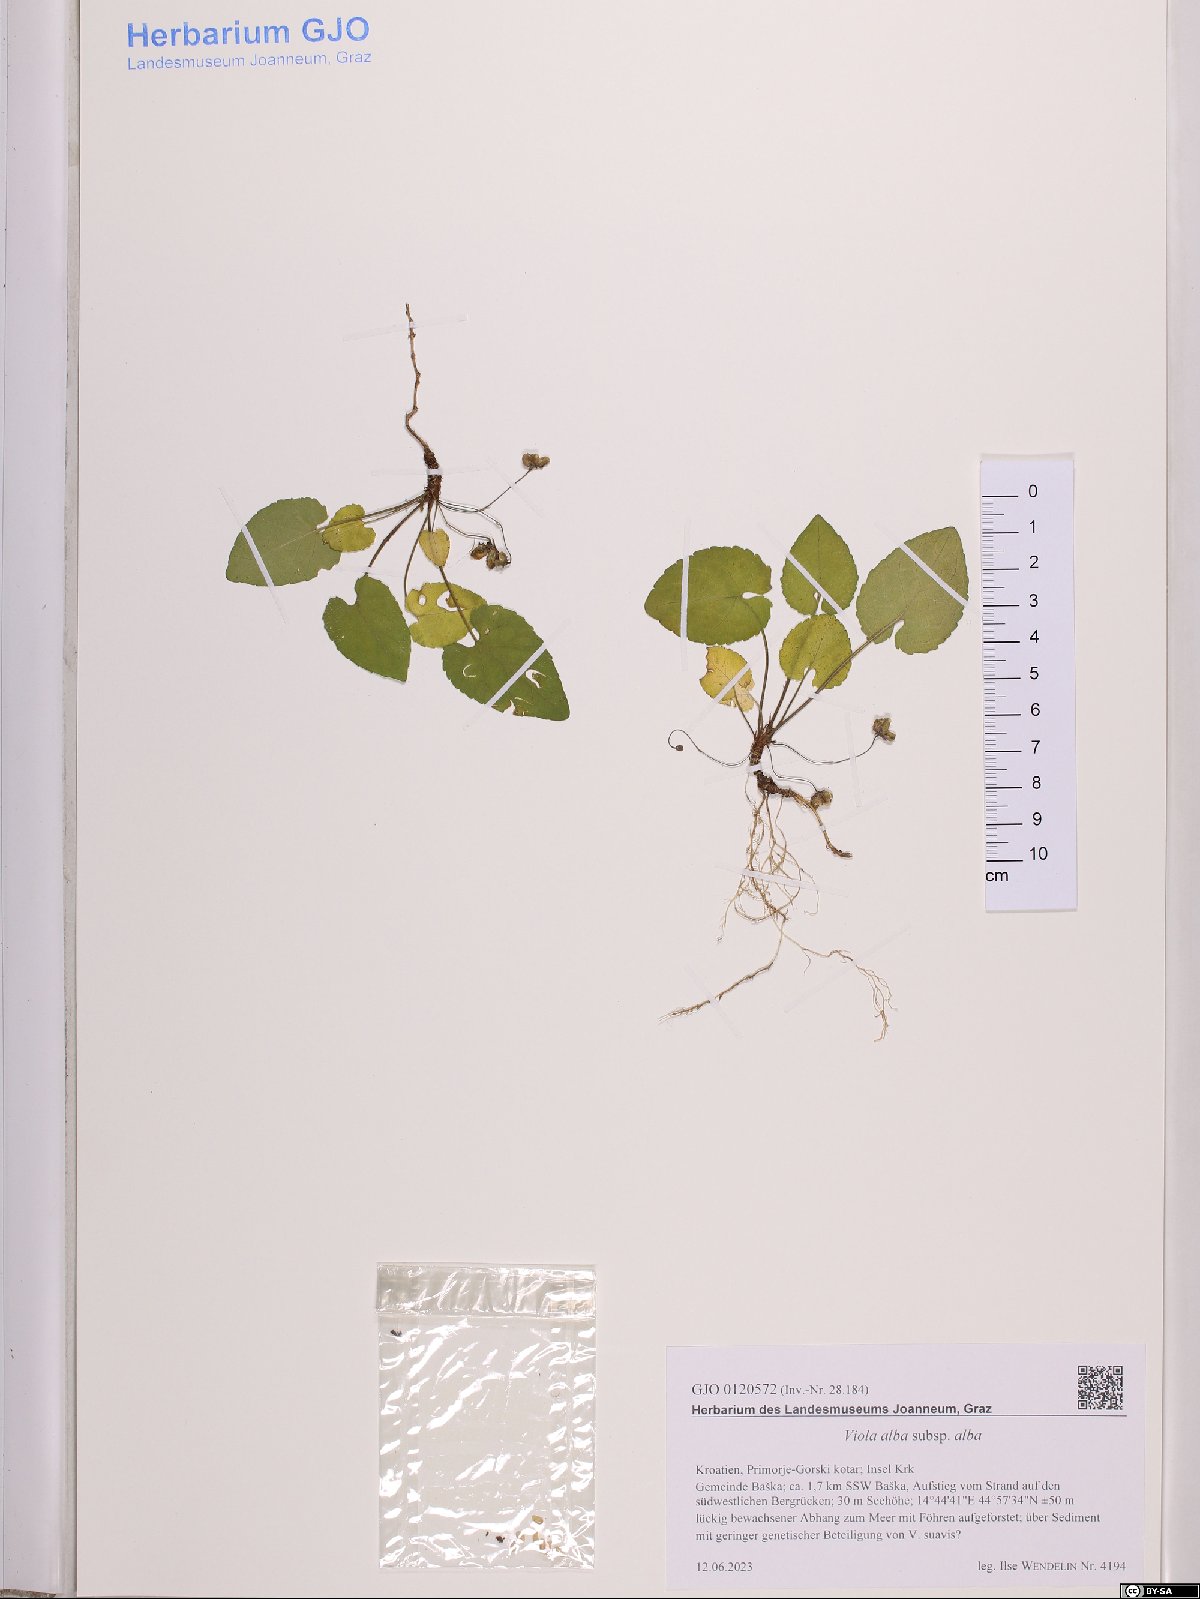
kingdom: Plantae
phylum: Tracheophyta
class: Magnoliopsida
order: Malpighiales
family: Violaceae
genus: Viola
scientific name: Viola alba
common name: White violet
